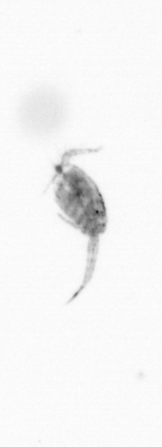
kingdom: Animalia
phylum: Arthropoda
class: Copepoda
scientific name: Copepoda
